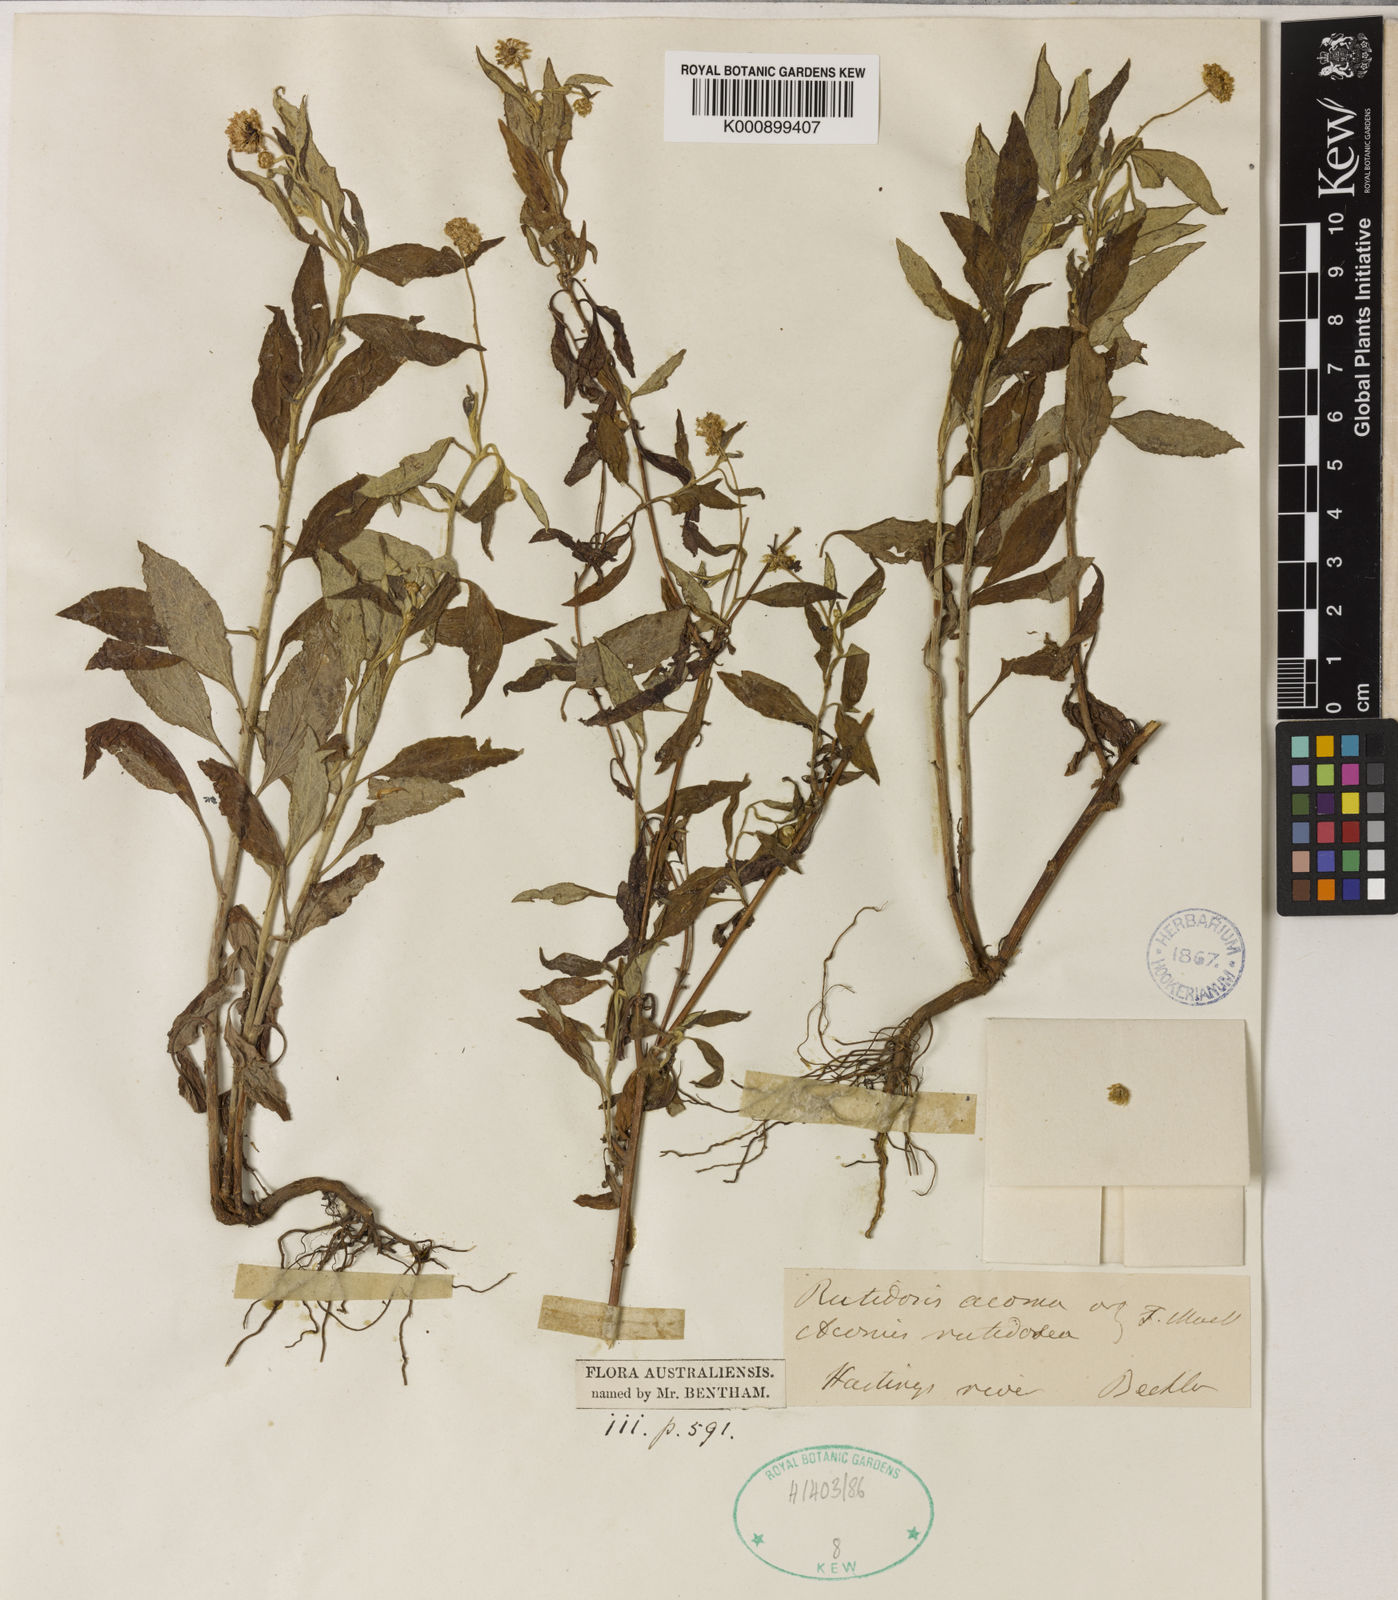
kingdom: Plantae
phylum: Tracheophyta
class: Magnoliopsida
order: Asterales
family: Asteraceae
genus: Acomis
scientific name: Acomis acoma
